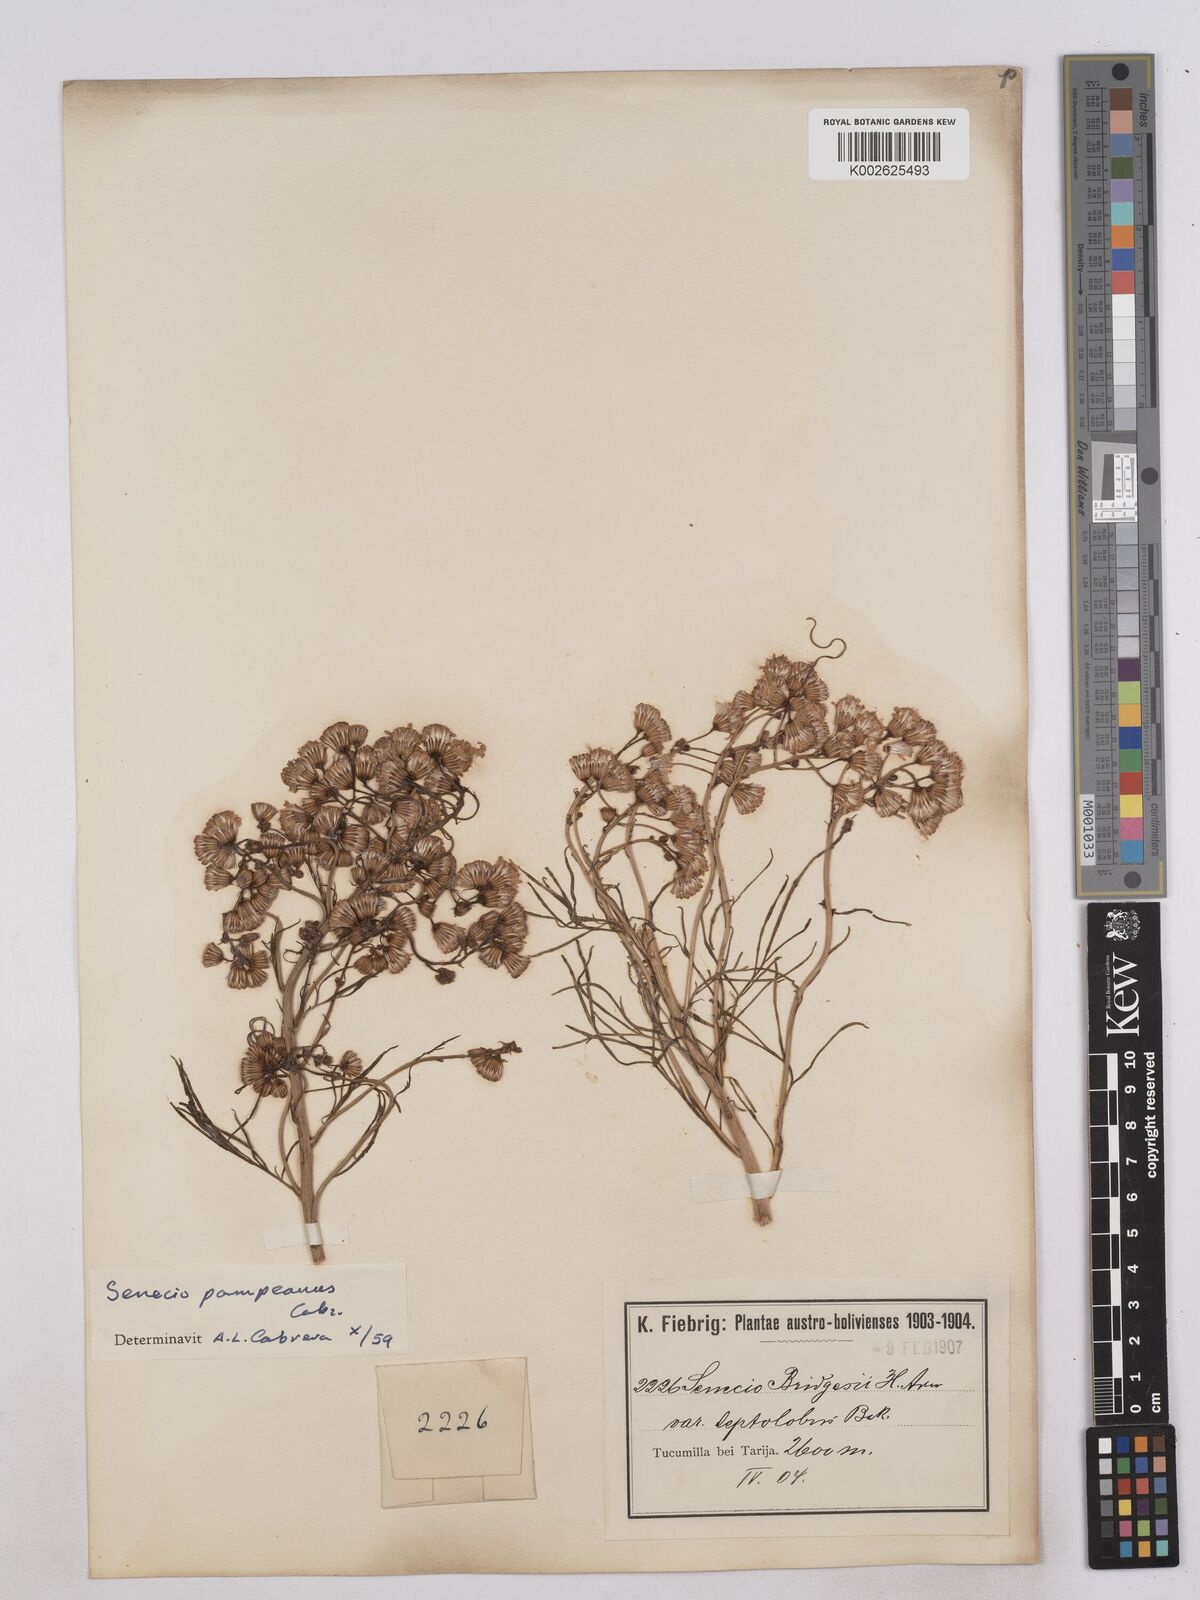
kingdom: Plantae
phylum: Tracheophyta
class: Magnoliopsida
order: Asterales
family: Asteraceae
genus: Senecio
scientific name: Senecio pampeanus
